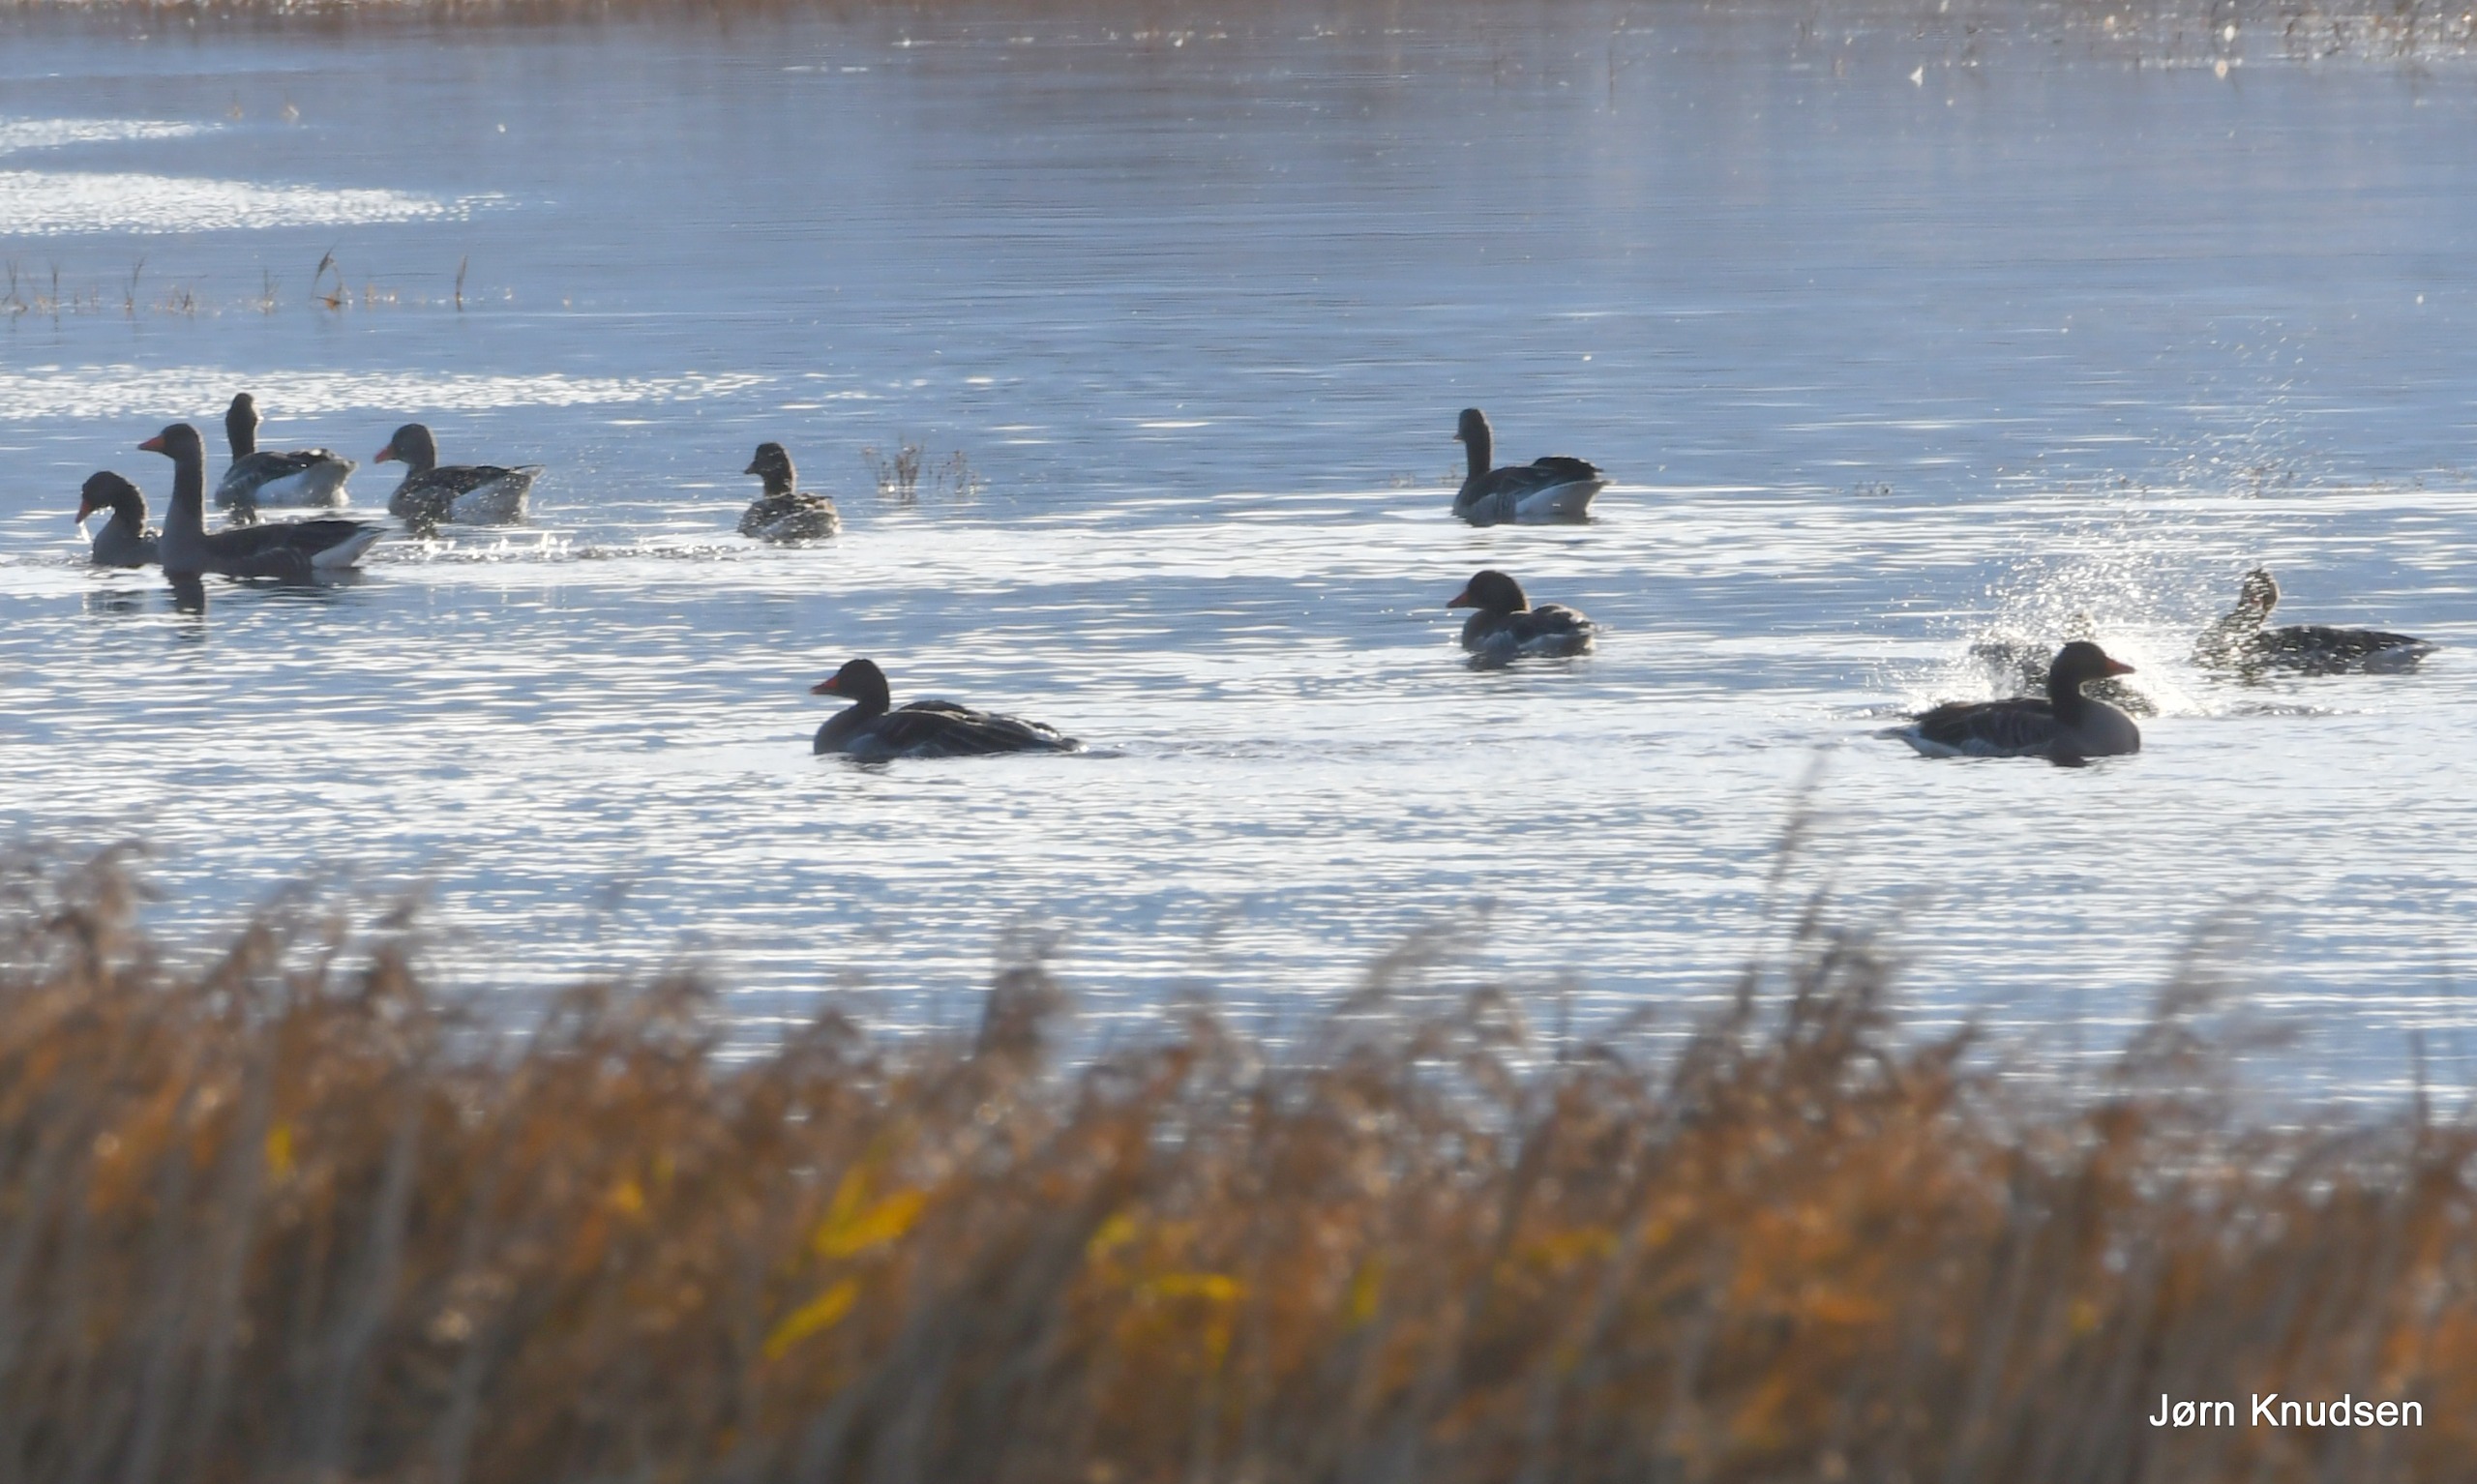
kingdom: Animalia
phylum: Chordata
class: Aves
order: Anseriformes
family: Anatidae
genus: Anser
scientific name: Anser anser
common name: Grågås
